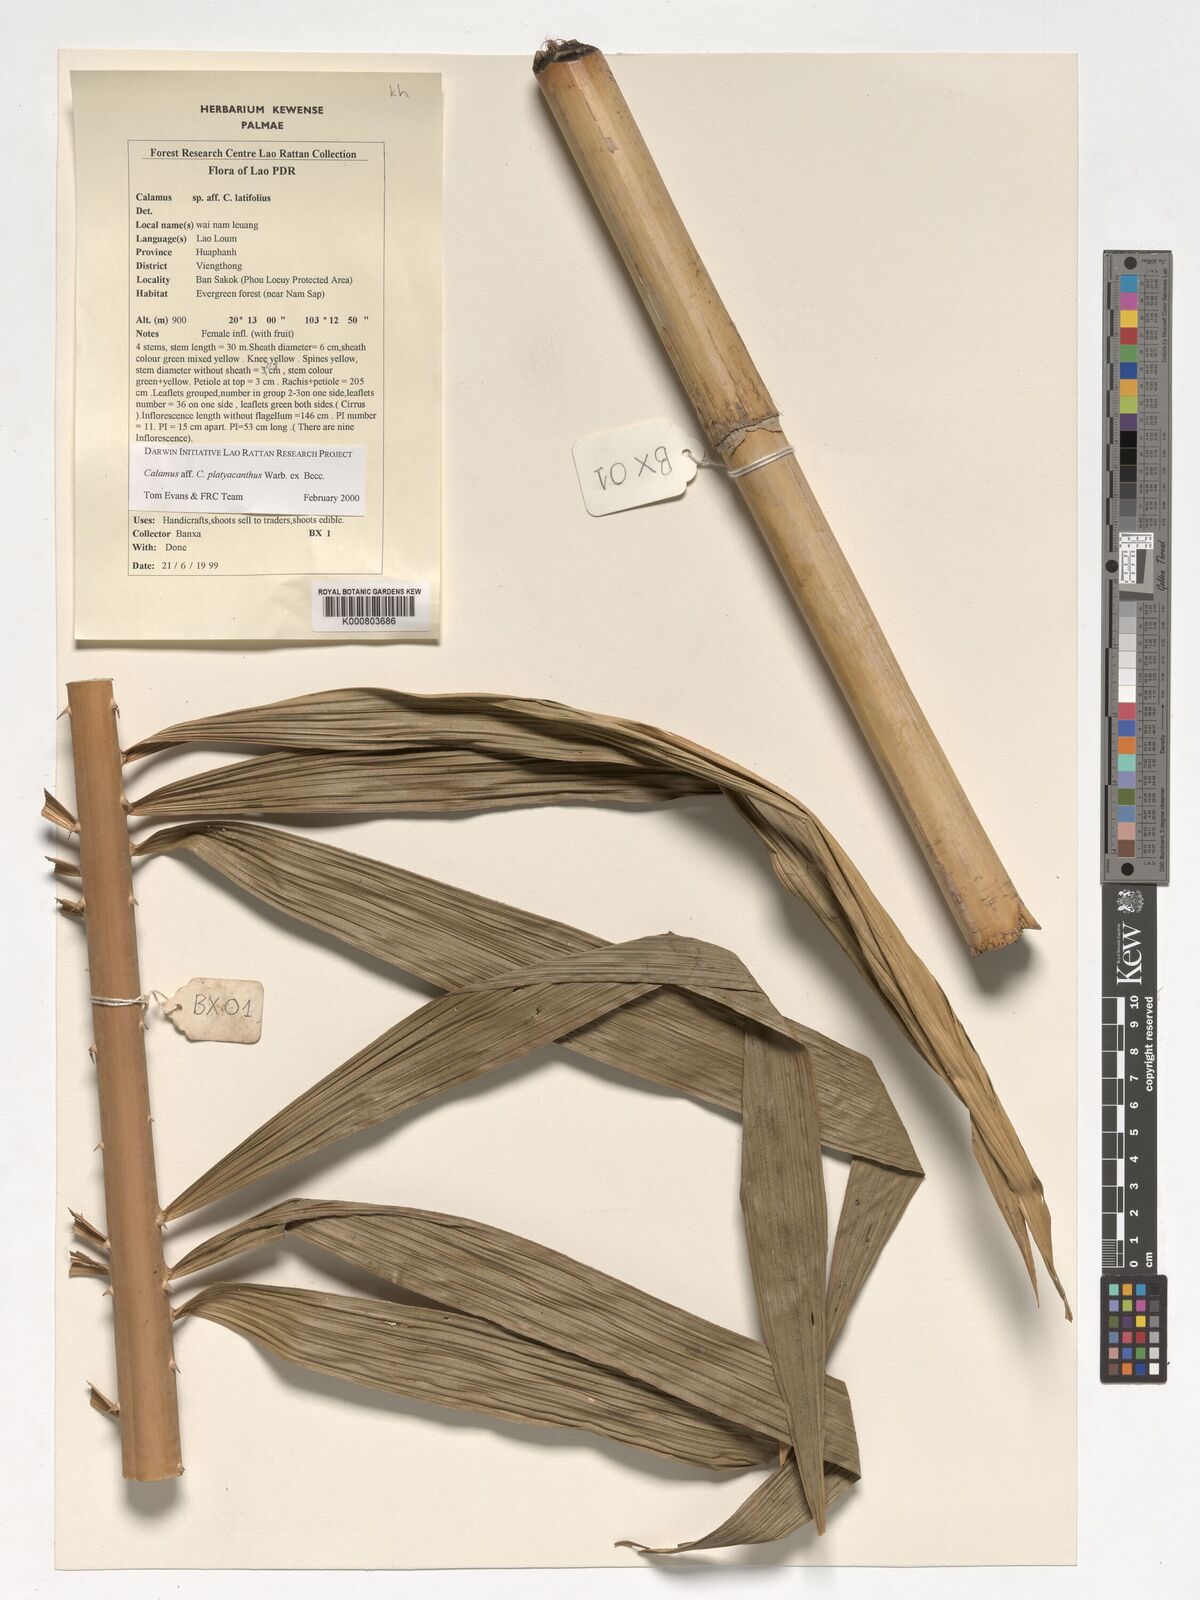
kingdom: Plantae
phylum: Tracheophyta
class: Liliopsida
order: Arecales
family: Arecaceae
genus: Calamus
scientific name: Calamus inermis
